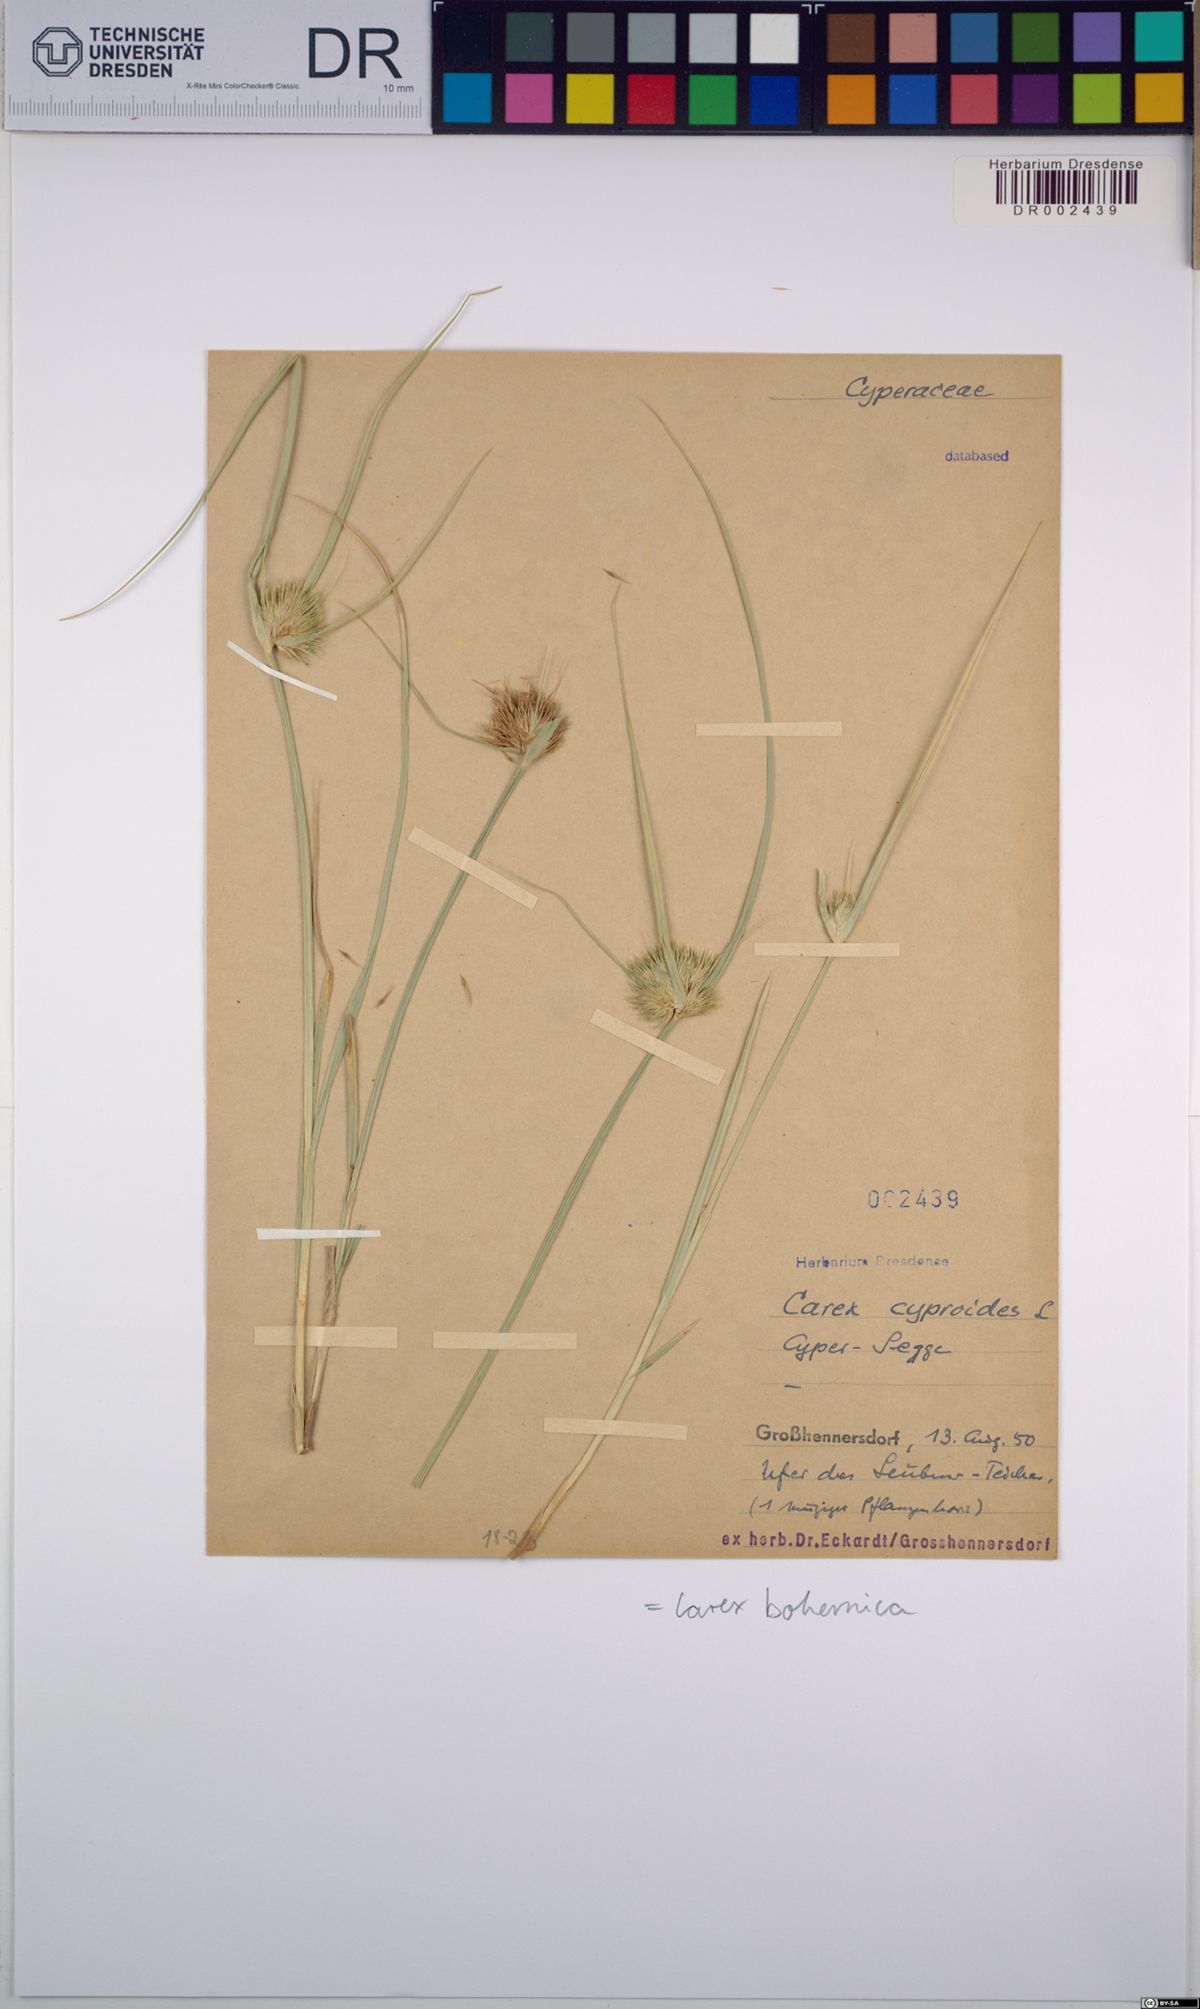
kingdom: Plantae
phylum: Tracheophyta
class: Liliopsida
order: Poales
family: Cyperaceae
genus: Carex
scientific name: Carex bohemica
